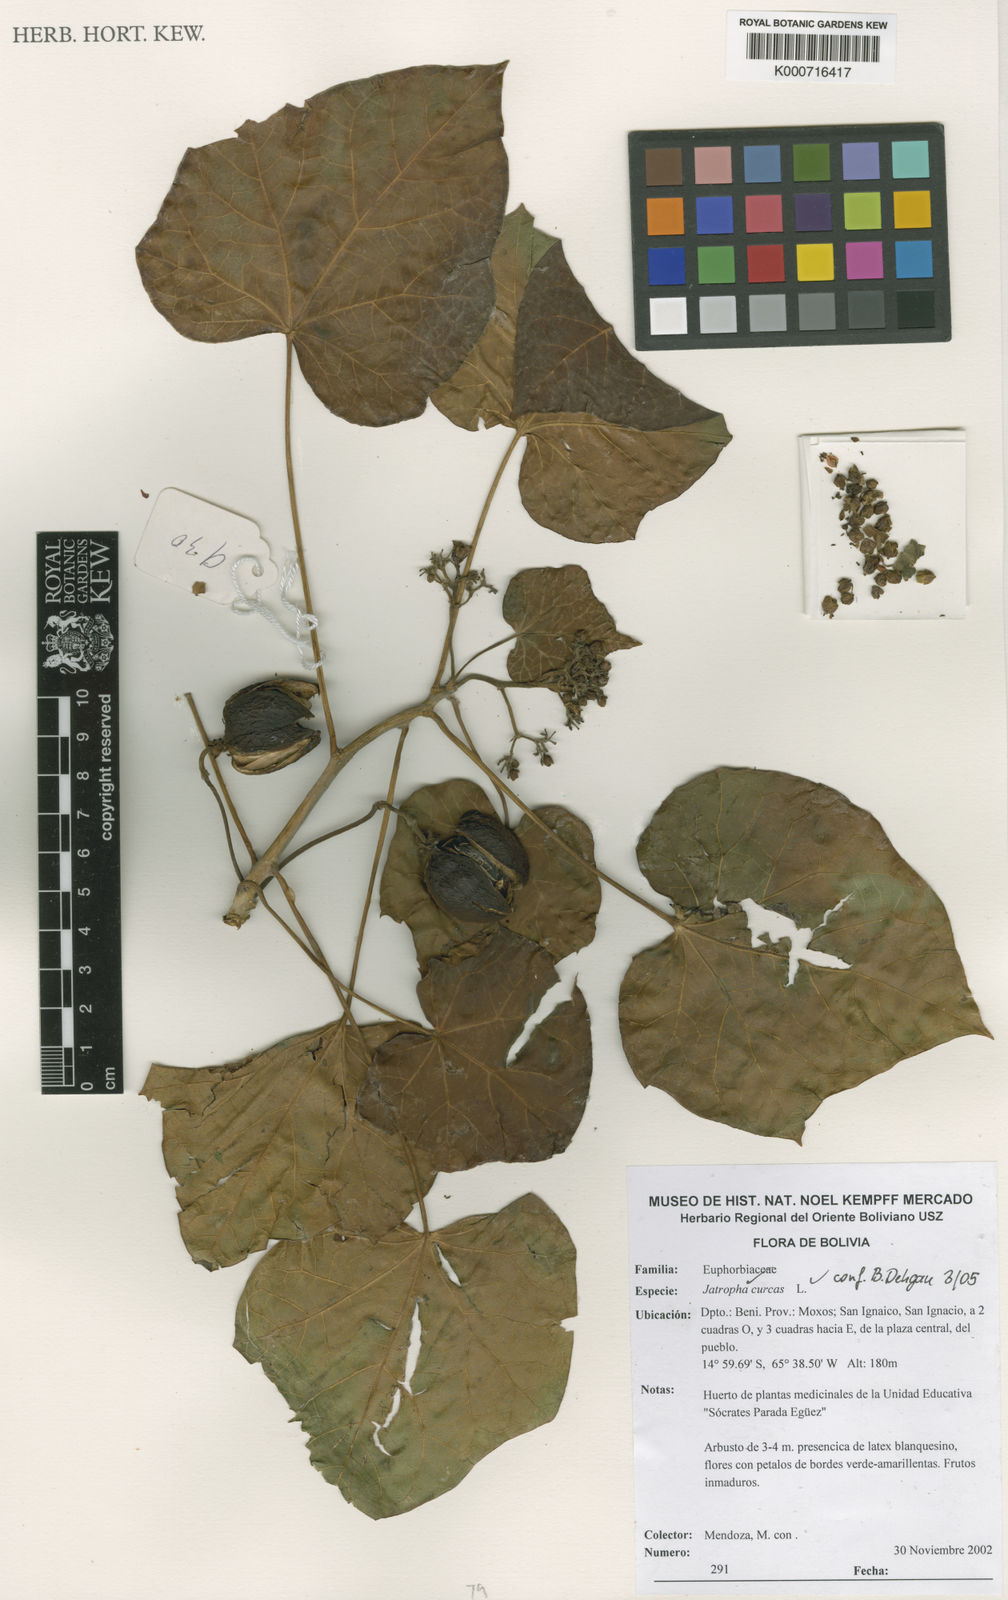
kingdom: Plantae
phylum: Tracheophyta
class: Magnoliopsida
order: Malpighiales
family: Euphorbiaceae
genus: Jatropha
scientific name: Jatropha curcas
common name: Barbados nut
